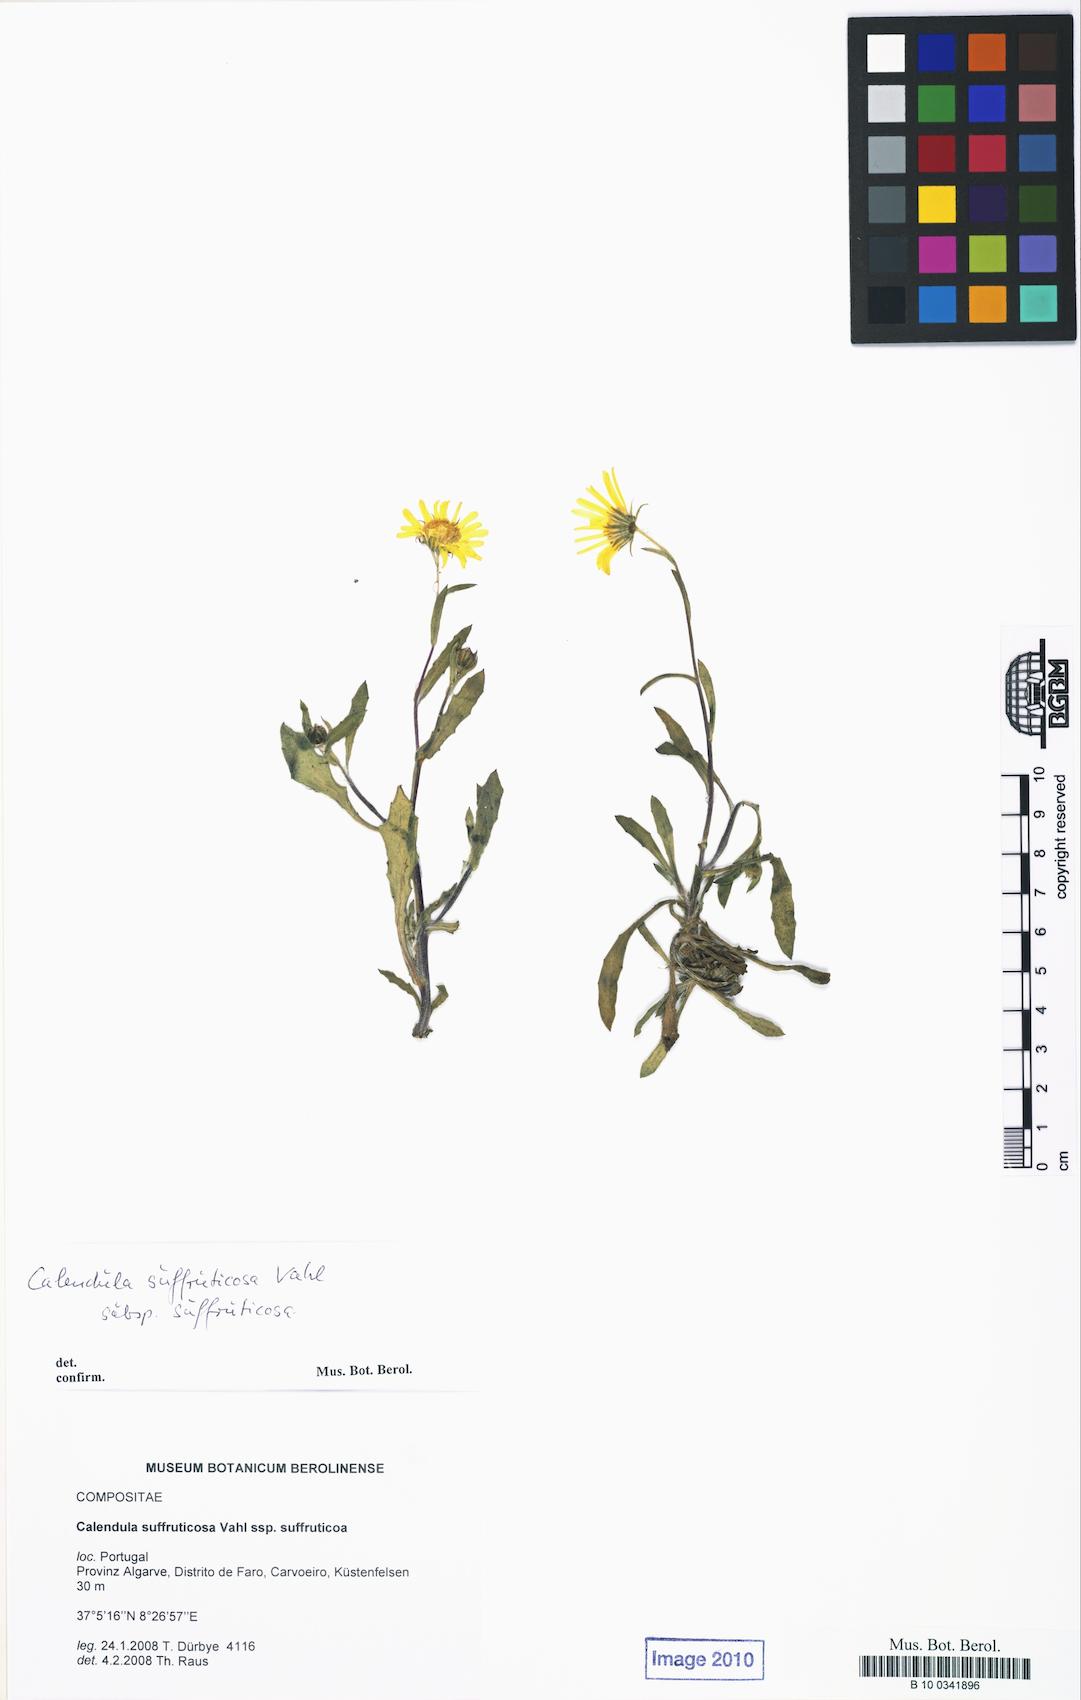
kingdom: Plantae
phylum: Tracheophyta
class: Magnoliopsida
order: Asterales
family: Asteraceae
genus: Calendula
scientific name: Calendula suffruticosa
